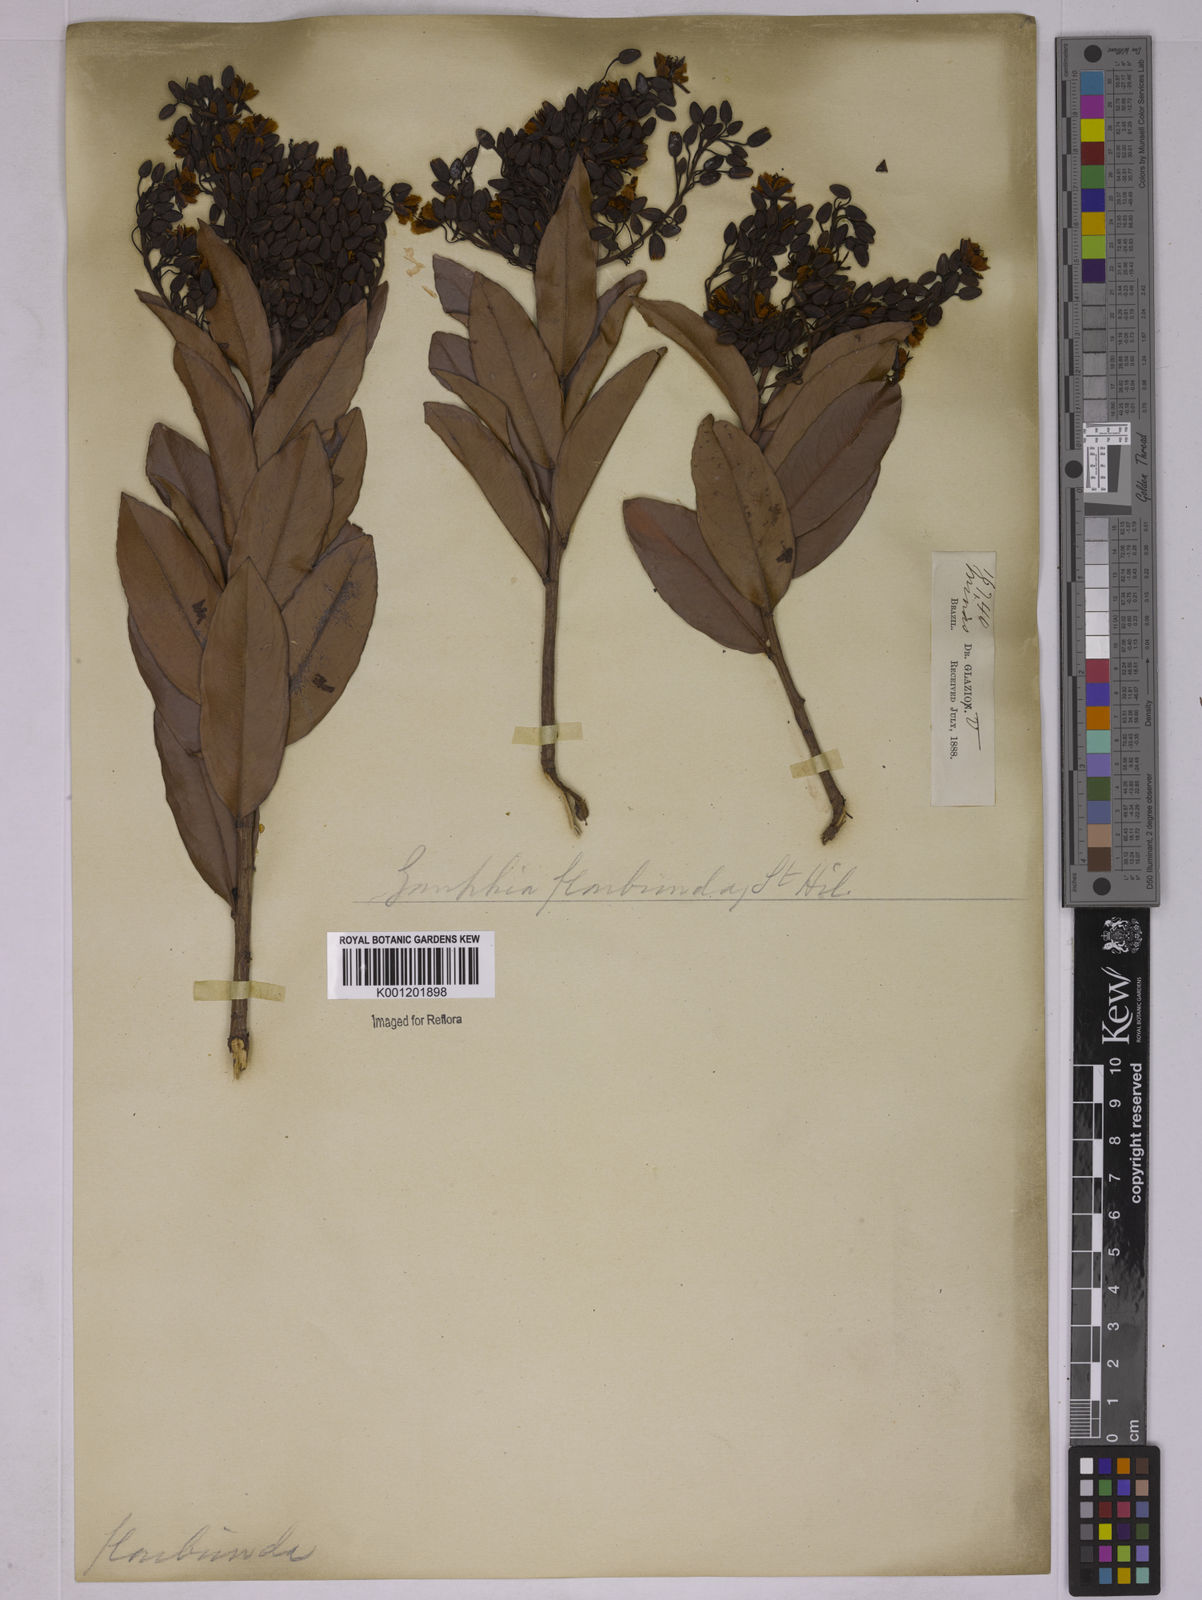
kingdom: Plantae
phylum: Tracheophyta
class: Magnoliopsida
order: Malpighiales
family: Ochnaceae
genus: Ouratea
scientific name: Ouratea floribunda
